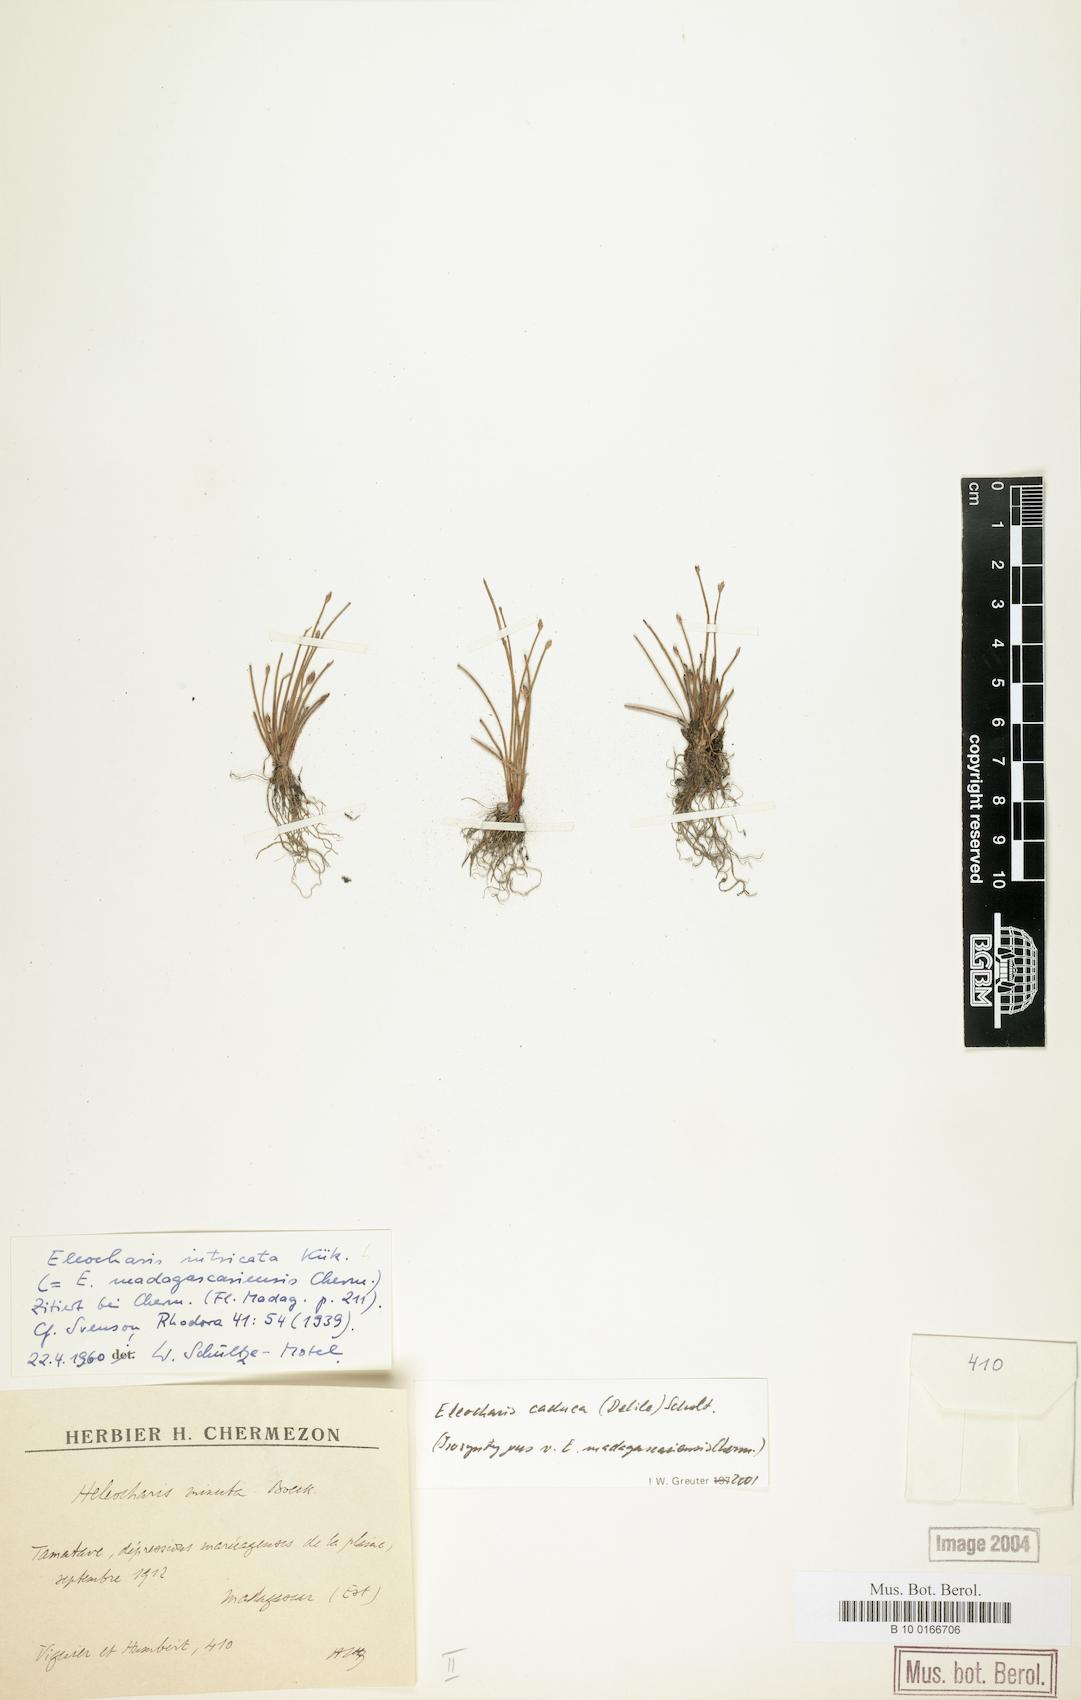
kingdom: Plantae
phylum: Tracheophyta
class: Liliopsida
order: Poales
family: Cyperaceae
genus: Eleocharis
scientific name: Eleocharis caduca
